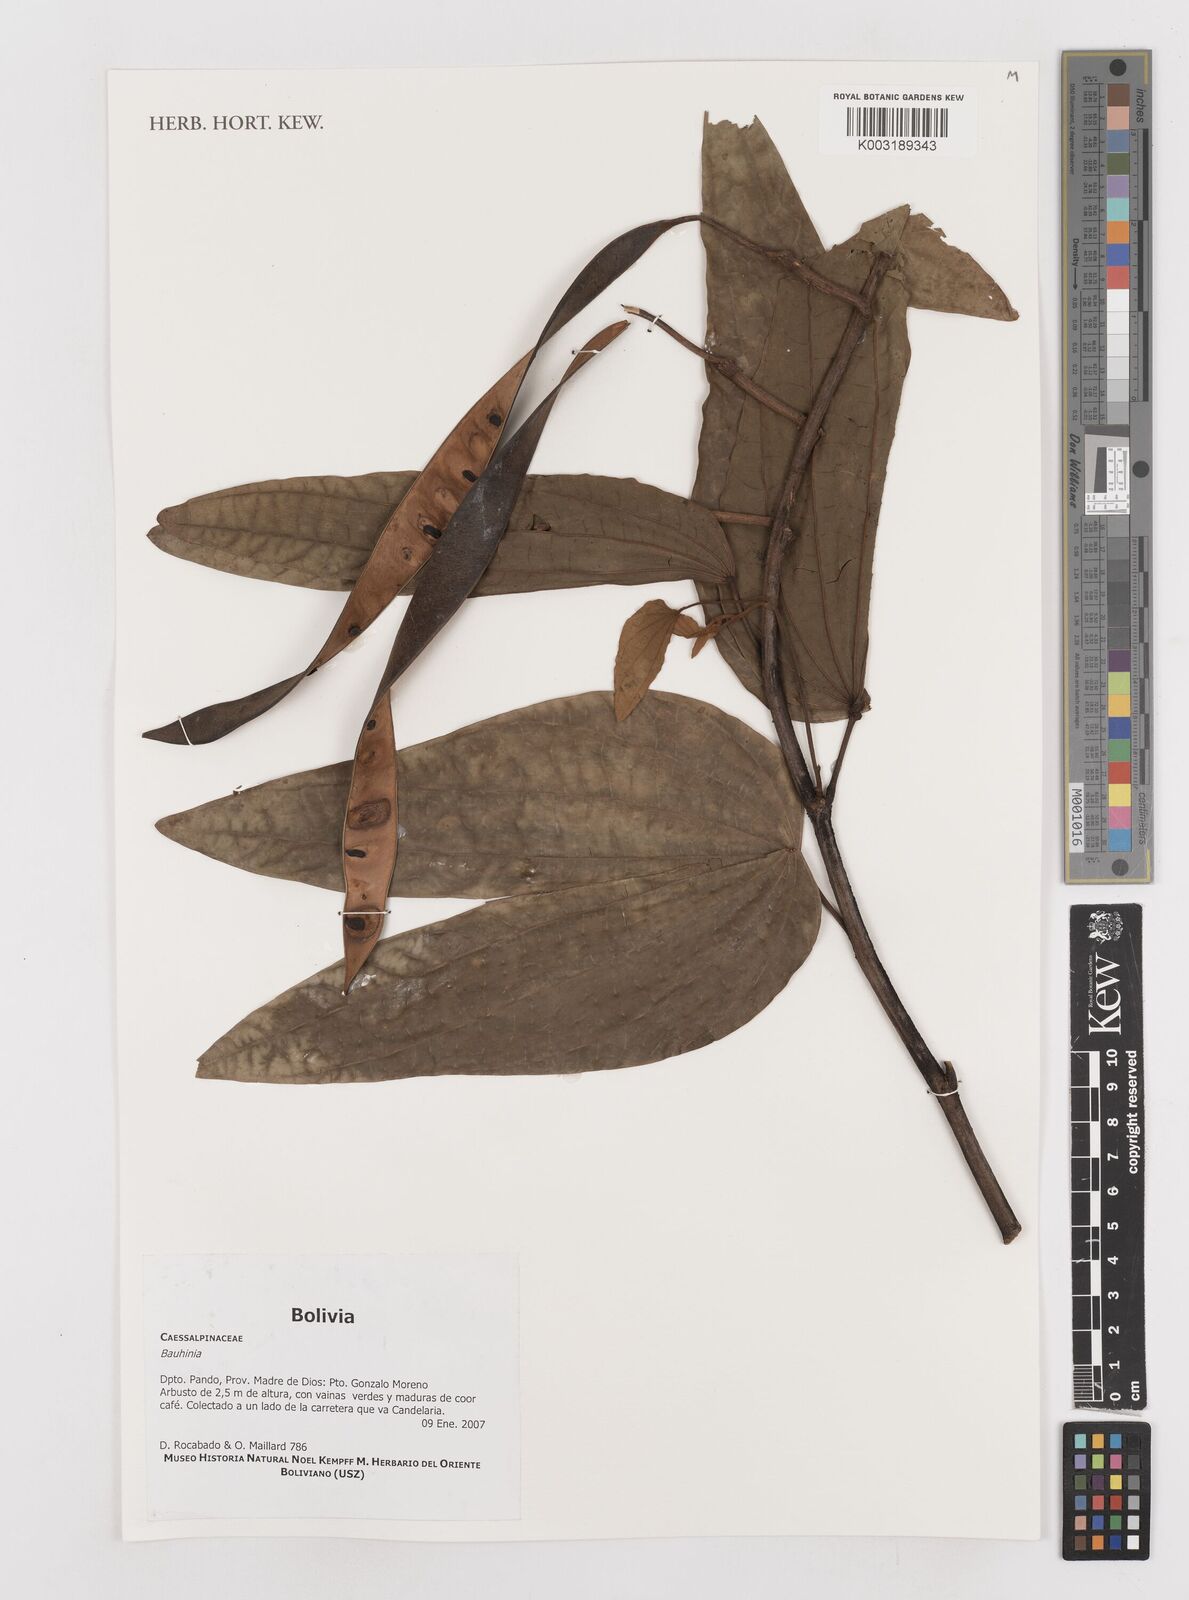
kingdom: Plantae
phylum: Tracheophyta
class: Magnoliopsida
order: Fabales
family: Fabaceae
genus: Bauhinia
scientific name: Bauhinia
